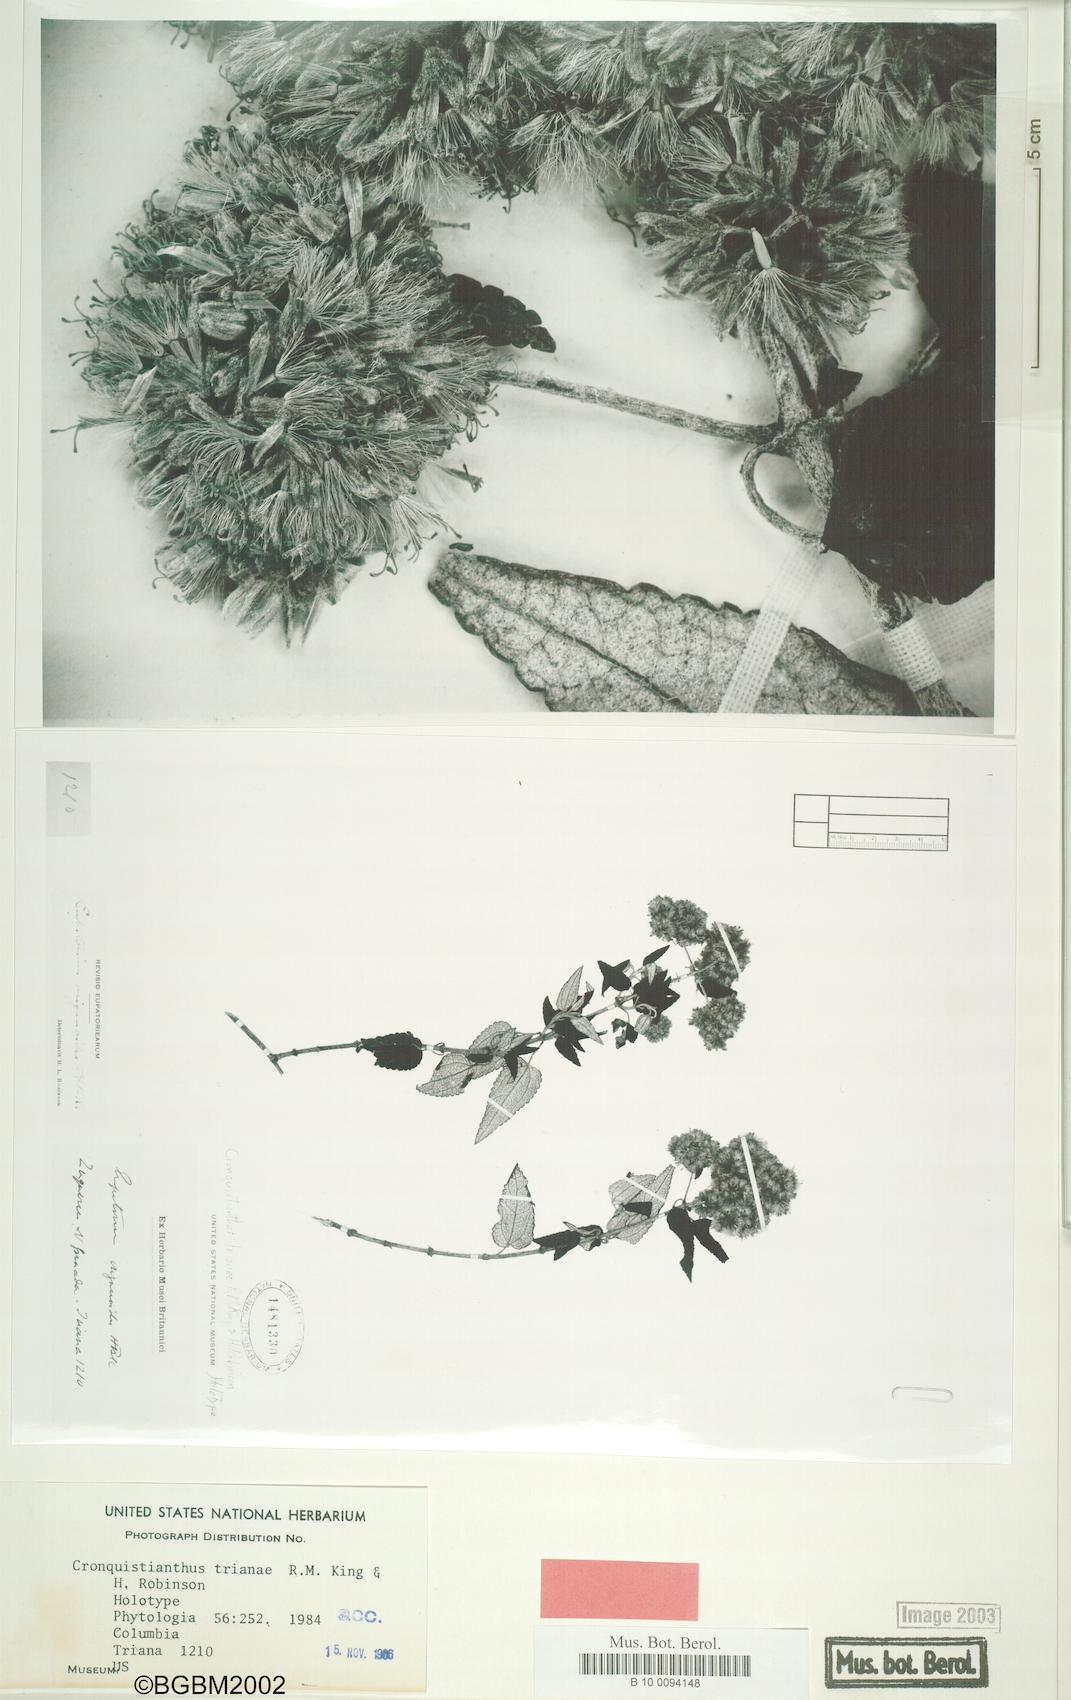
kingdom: Plantae
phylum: Tracheophyta
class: Magnoliopsida
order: Asterales
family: Asteraceae
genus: Cronquistianthus
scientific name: Cronquistianthus trianae
